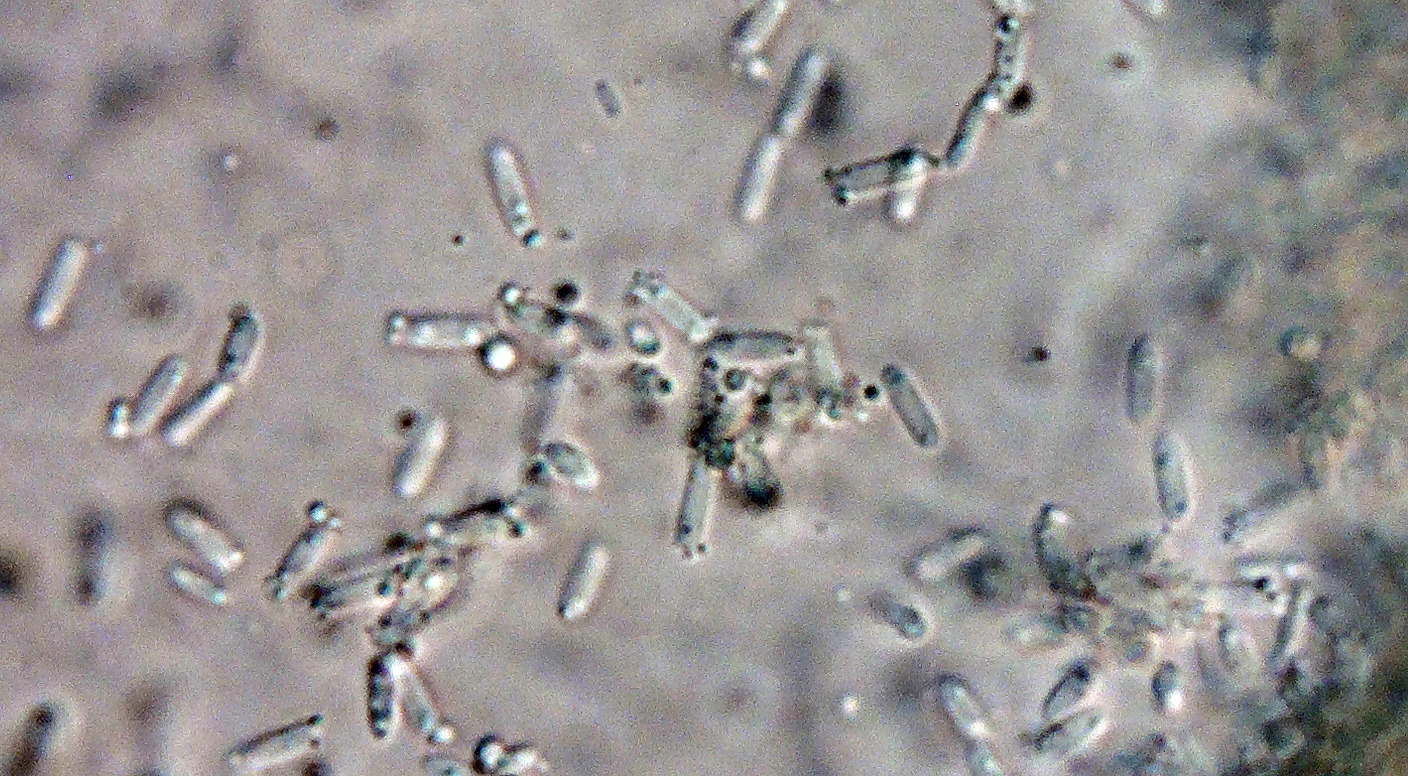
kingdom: Fungi
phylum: Ascomycota
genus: Microdiscula
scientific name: Microdiscula phragmitis
